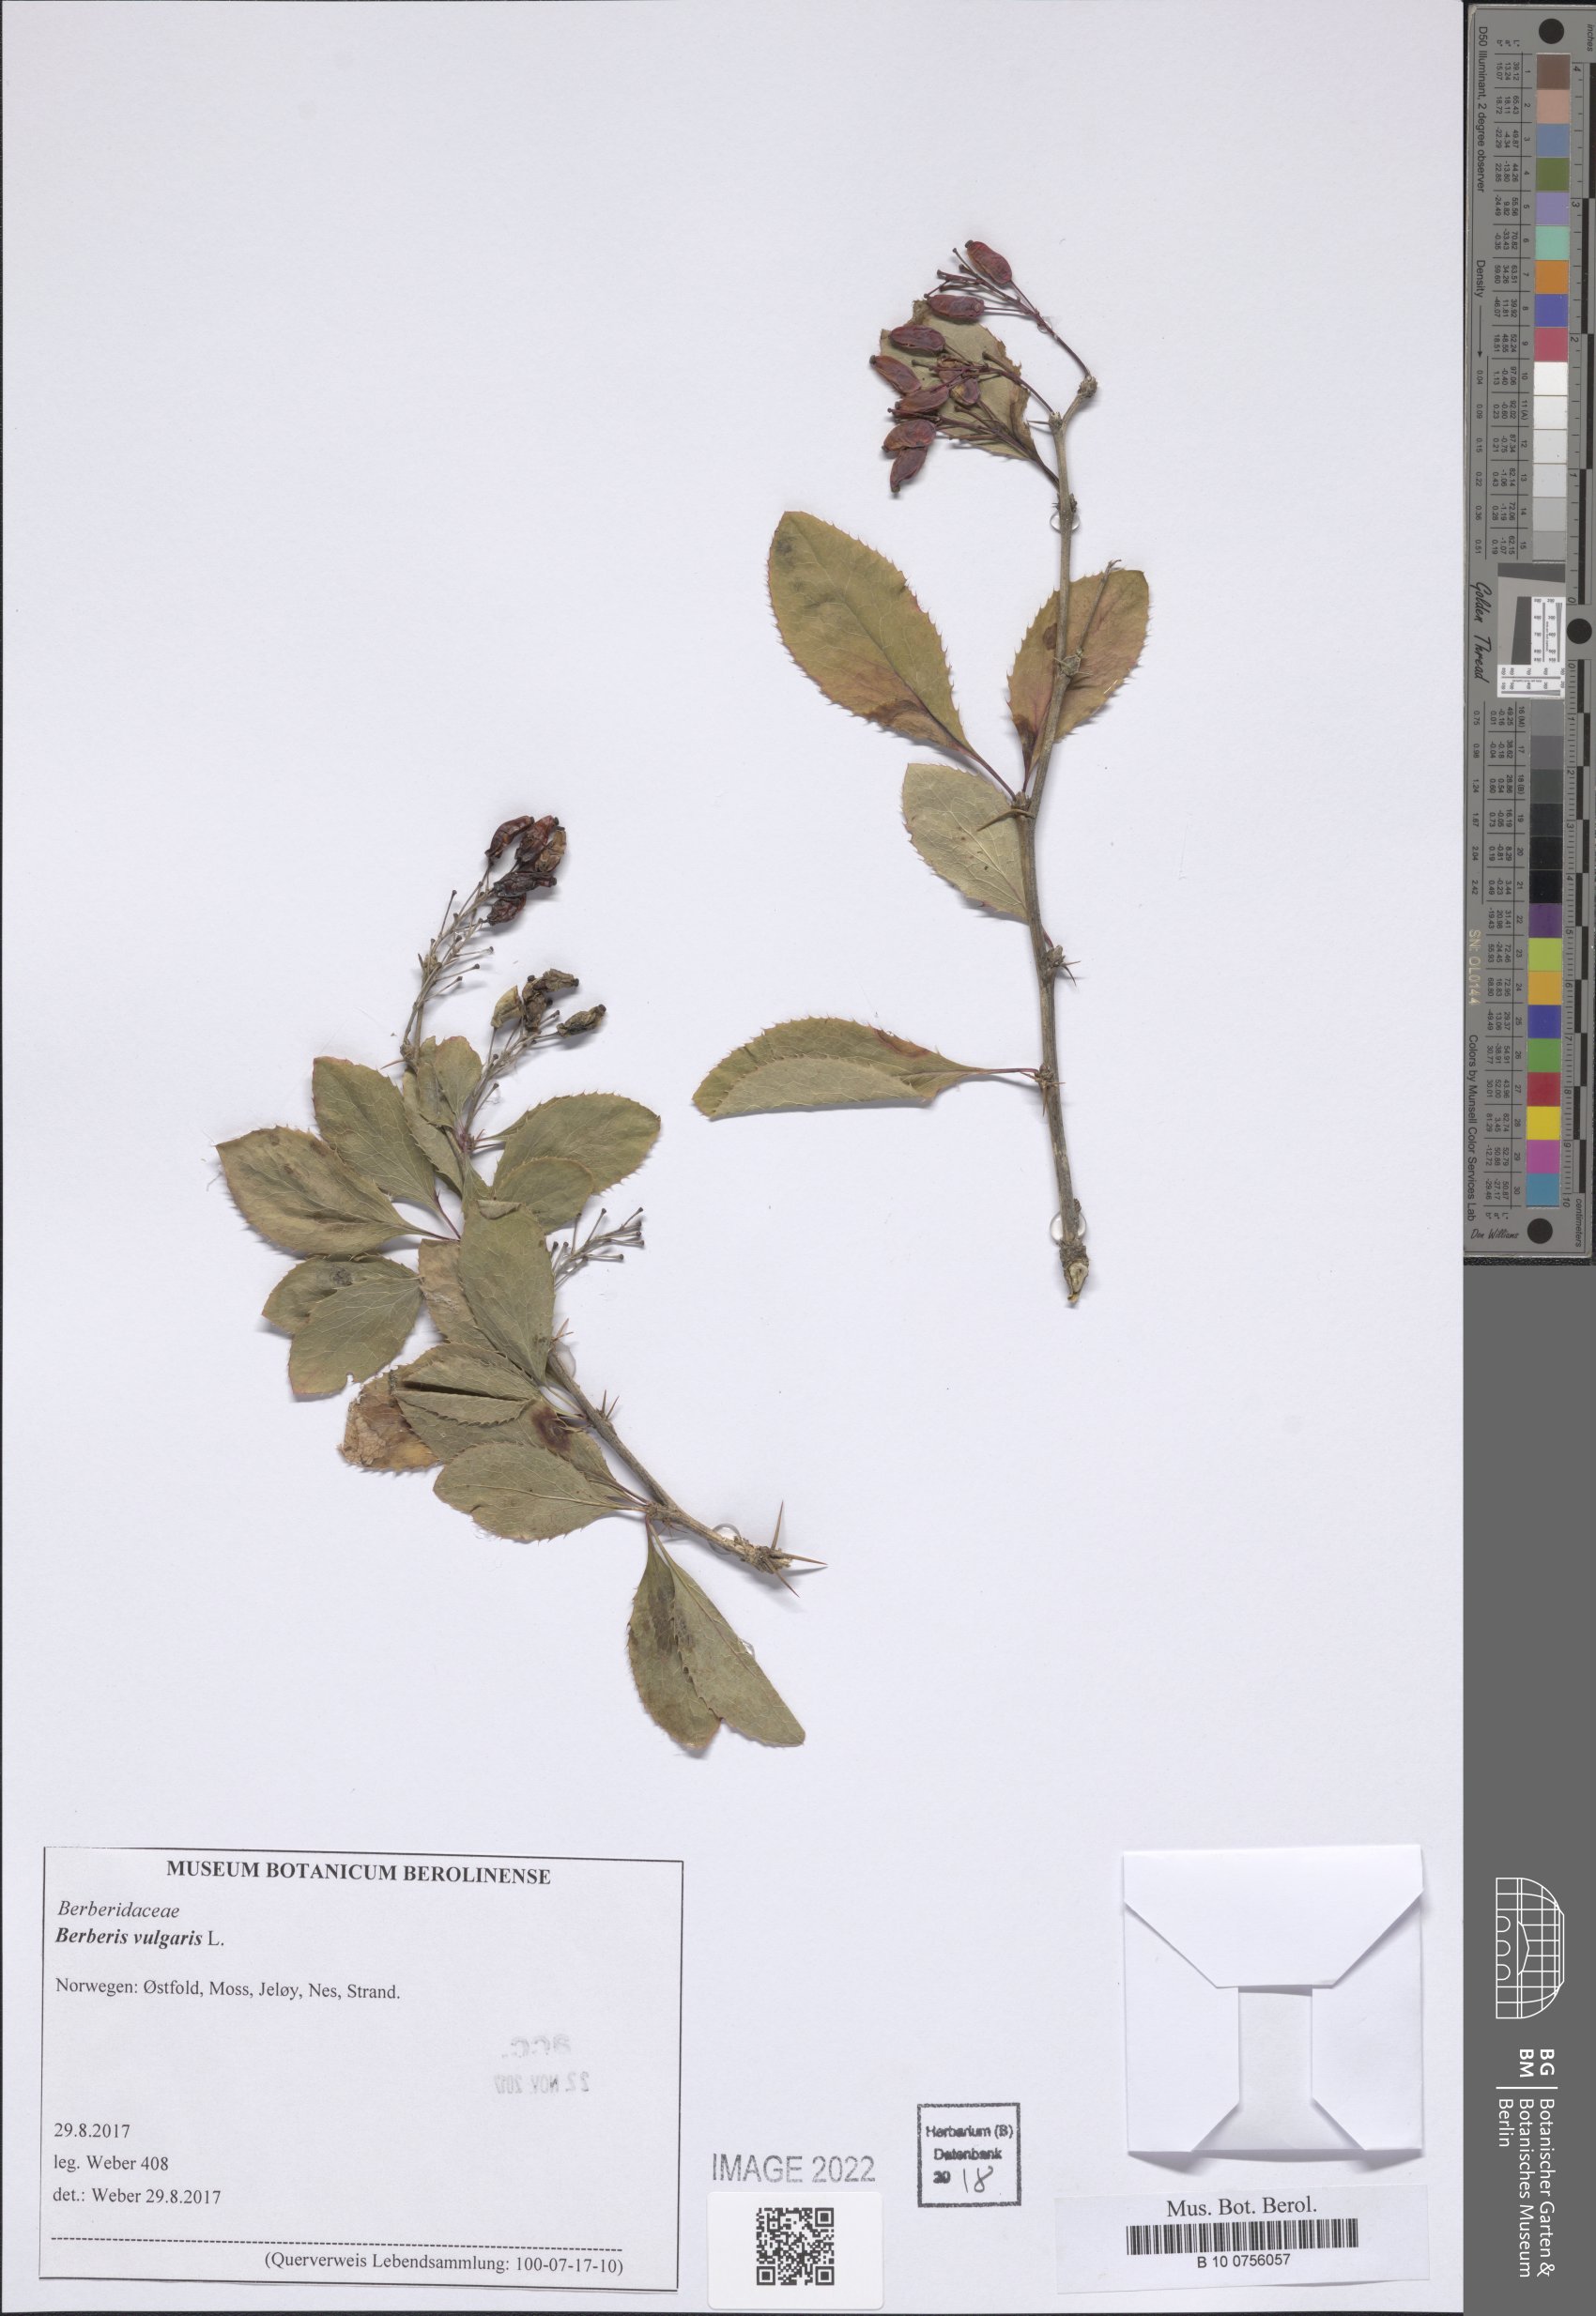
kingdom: Plantae
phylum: Tracheophyta
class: Magnoliopsida
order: Ranunculales
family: Berberidaceae
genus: Berberis
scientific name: Berberis vulgaris
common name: Barberry
